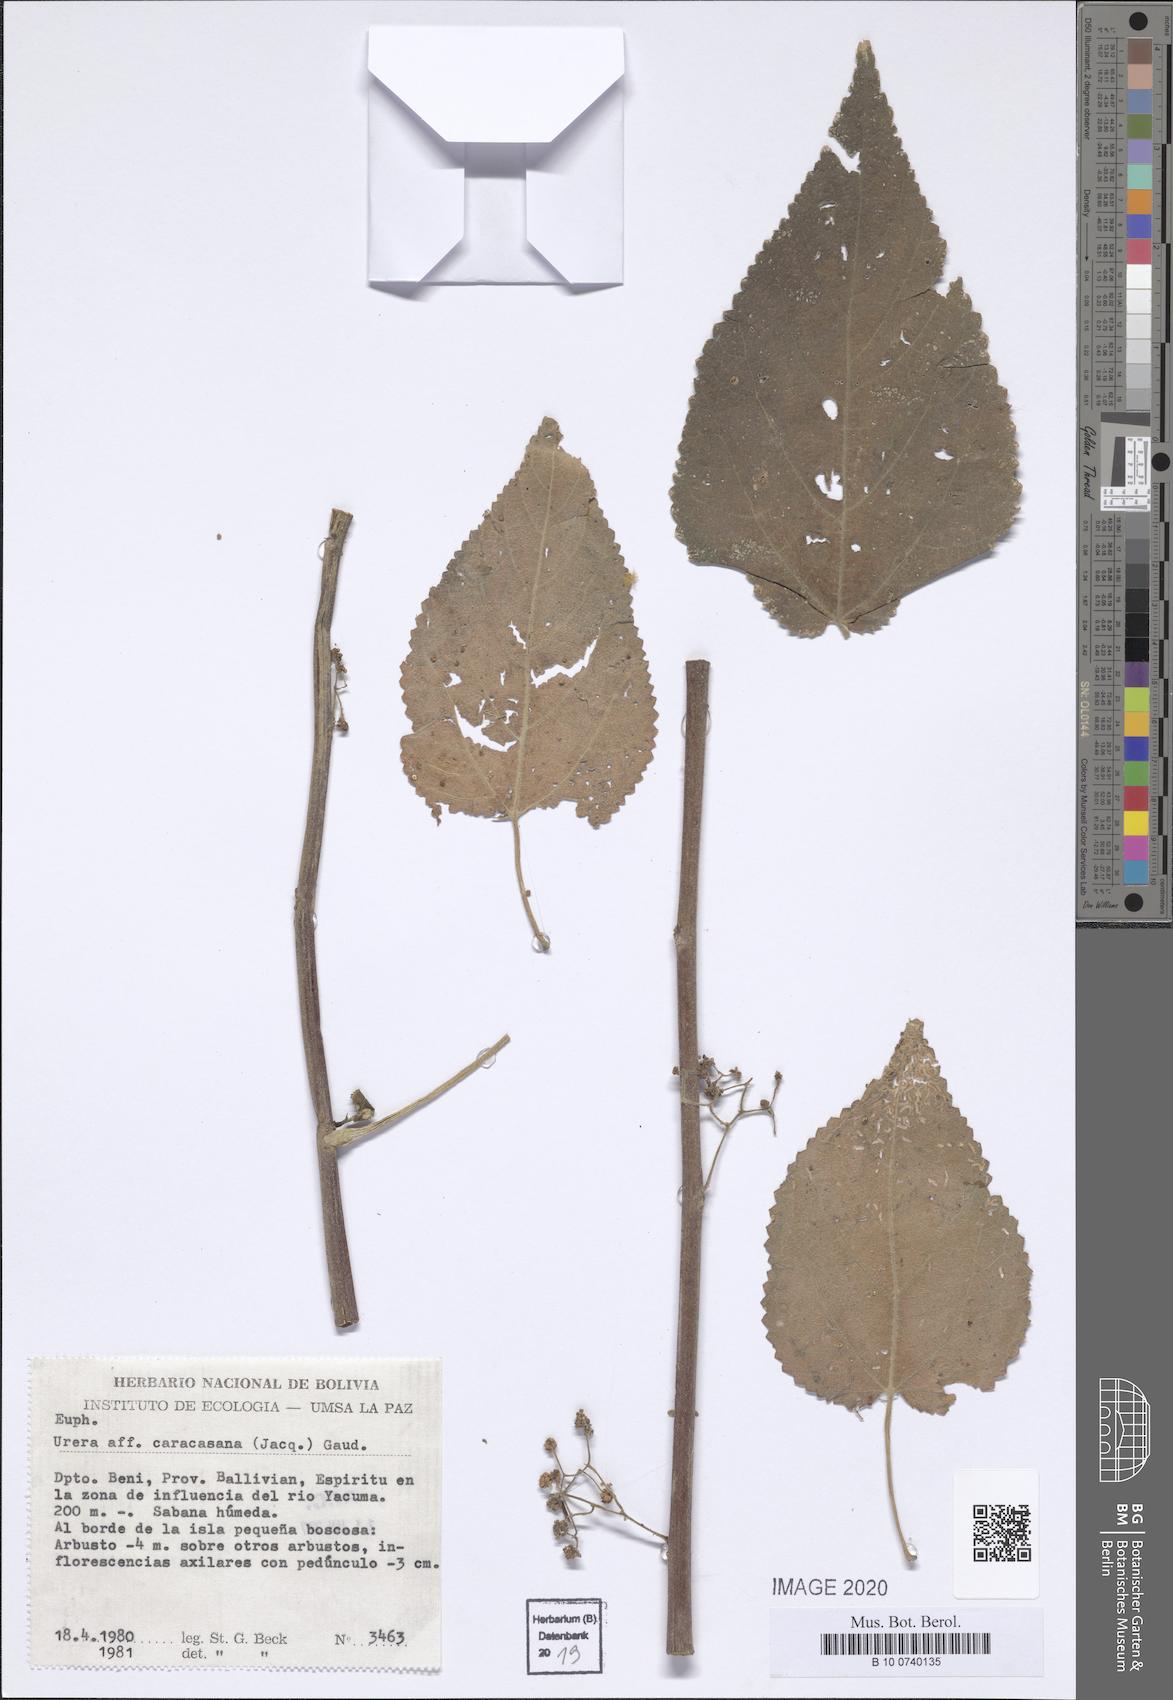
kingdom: Plantae
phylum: Tracheophyta
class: Magnoliopsida
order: Rosales
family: Urticaceae
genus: Urera
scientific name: Urera caracasana
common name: Flameberry
